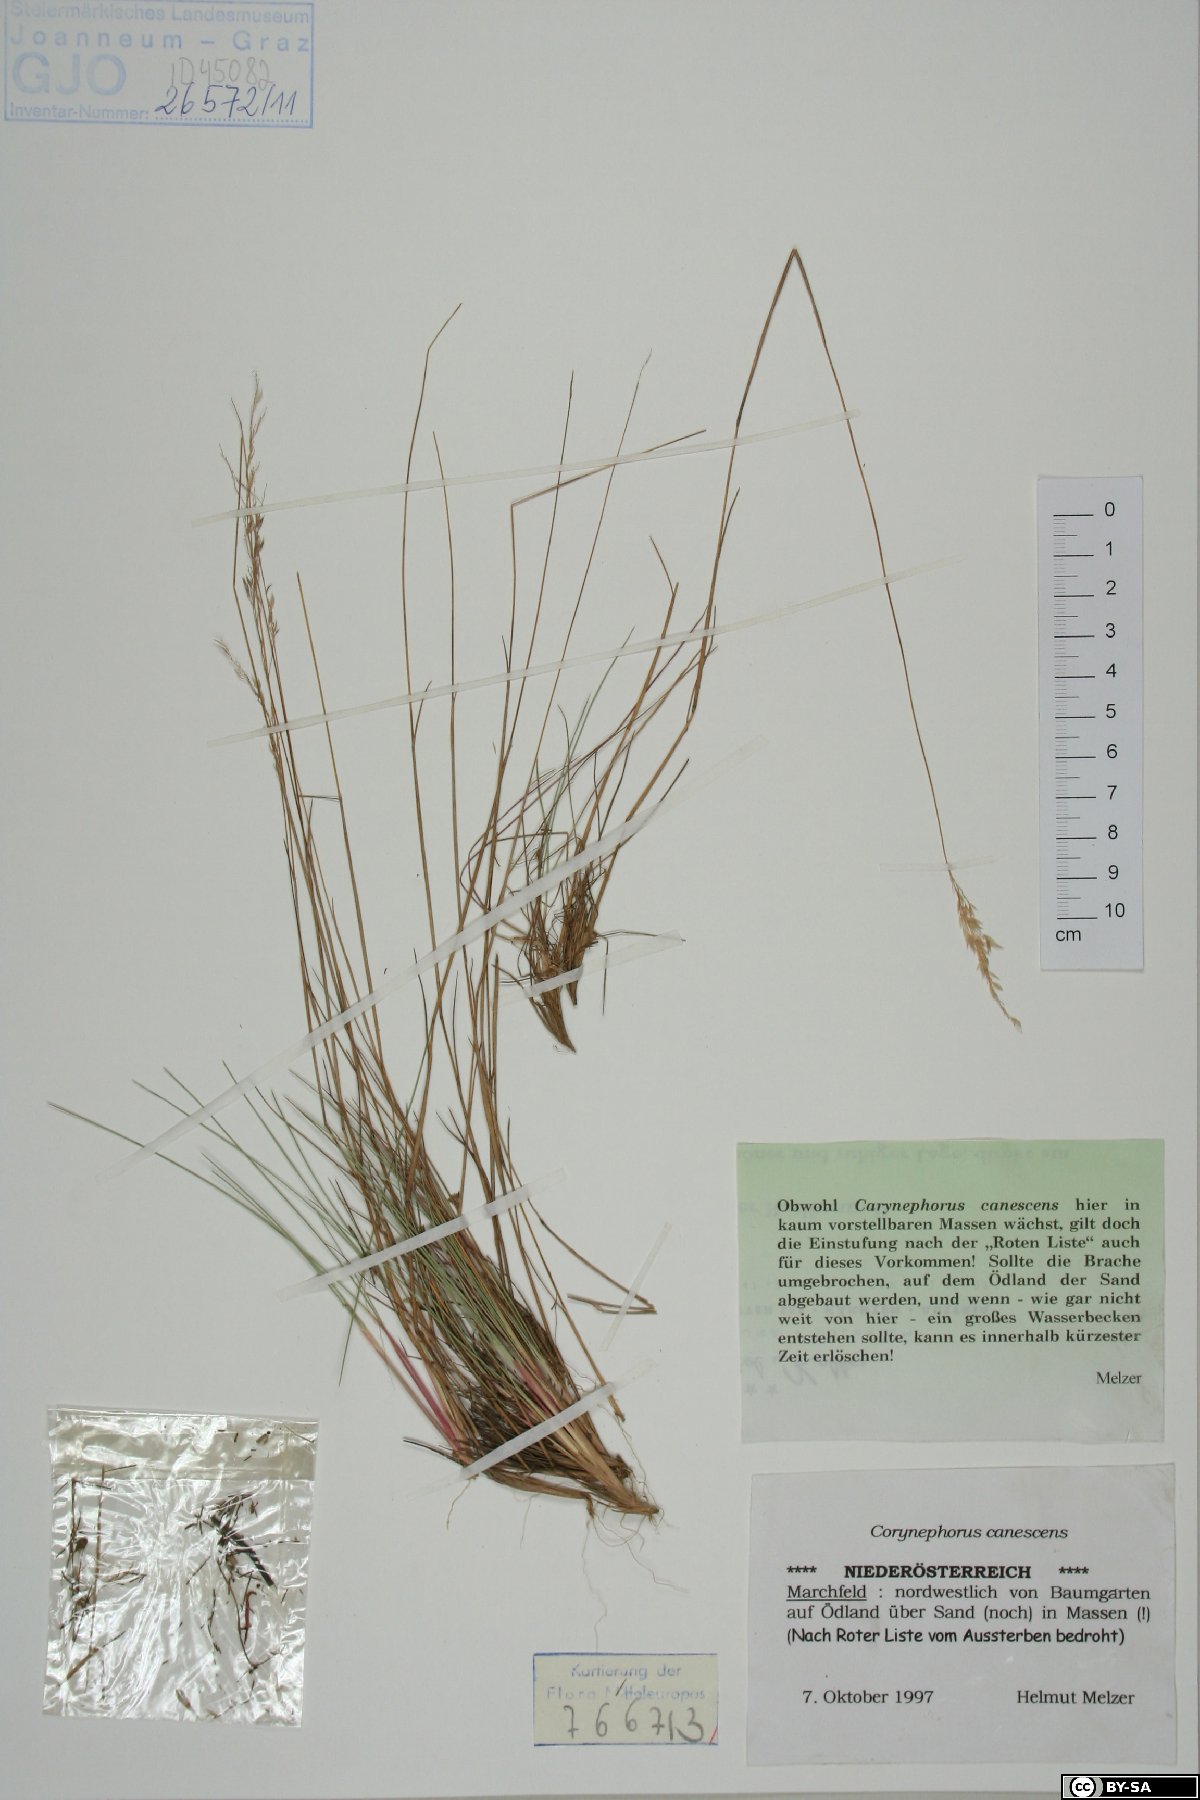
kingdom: Plantae
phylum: Tracheophyta
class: Liliopsida
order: Poales
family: Poaceae
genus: Corynephorus
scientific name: Corynephorus canescens
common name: Grey hair-grass
